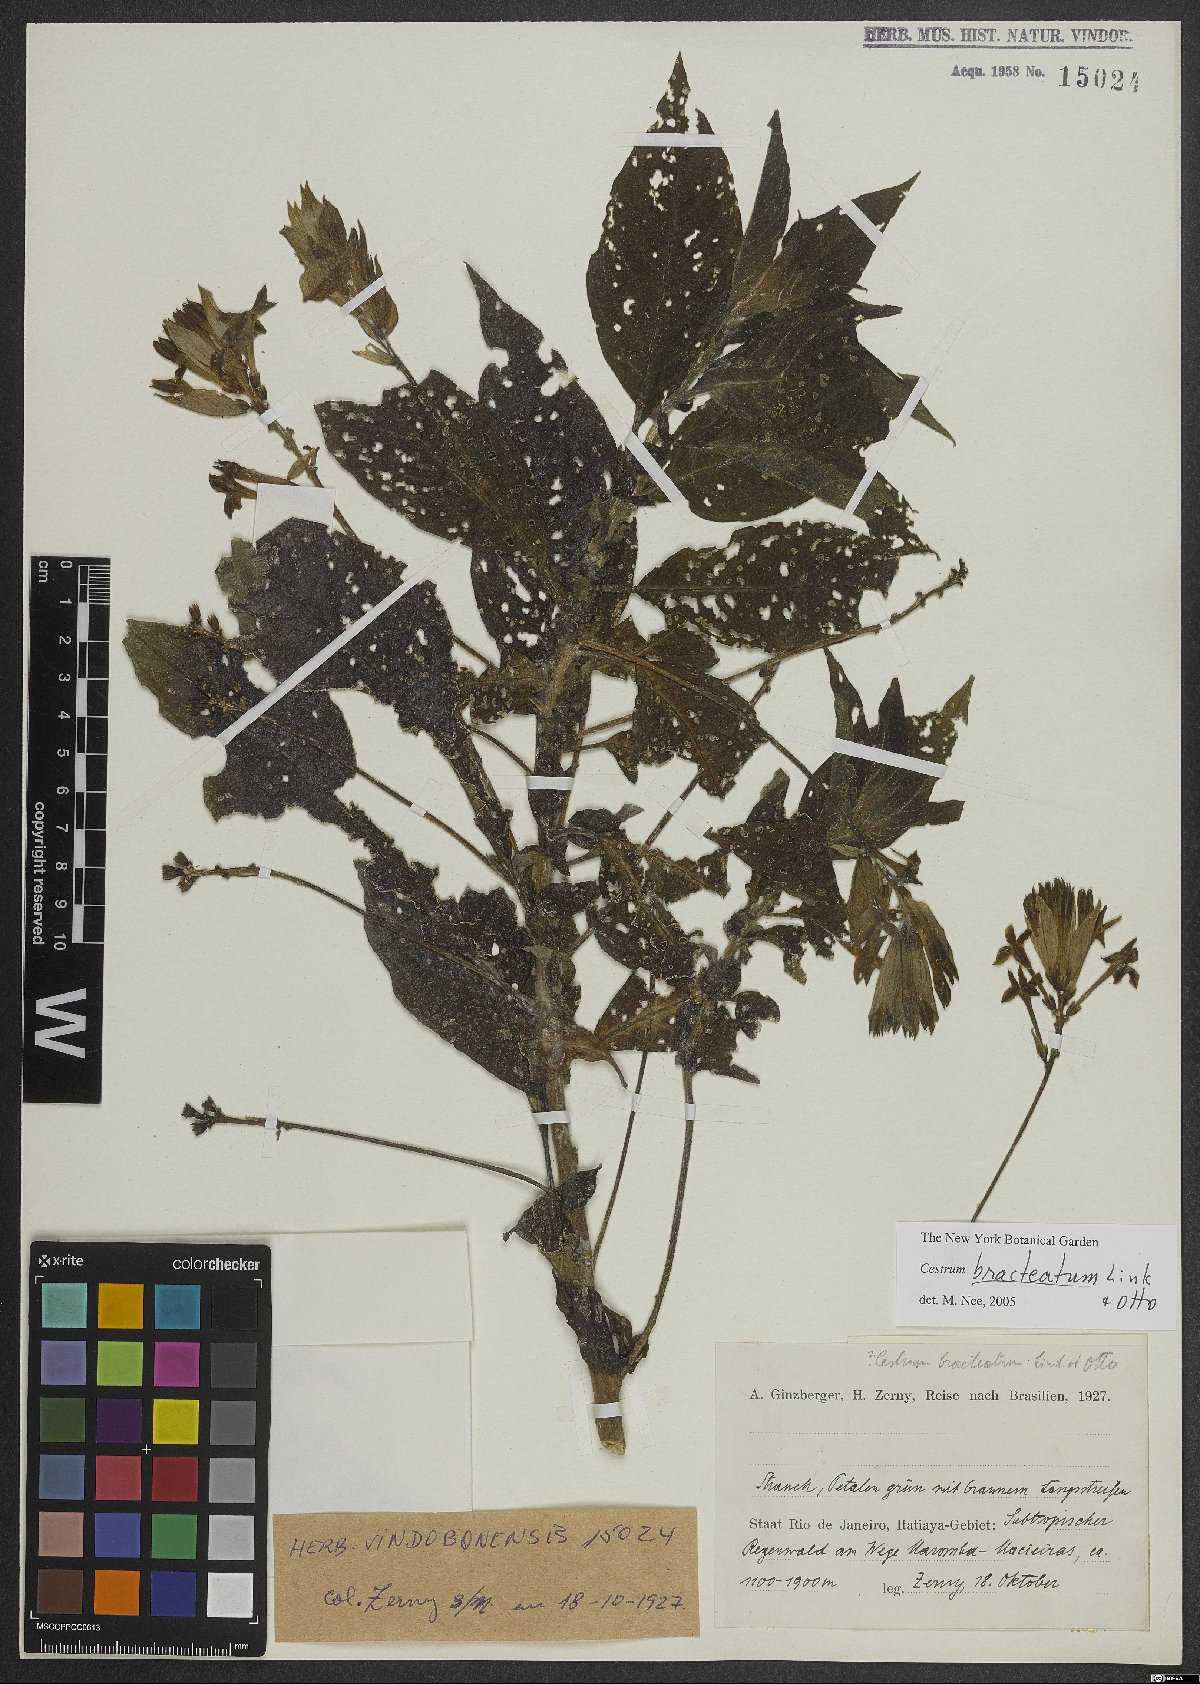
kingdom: Plantae
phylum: Tracheophyta
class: Magnoliopsida
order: Solanales
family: Solanaceae
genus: Cestrum
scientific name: Cestrum bracteatum
